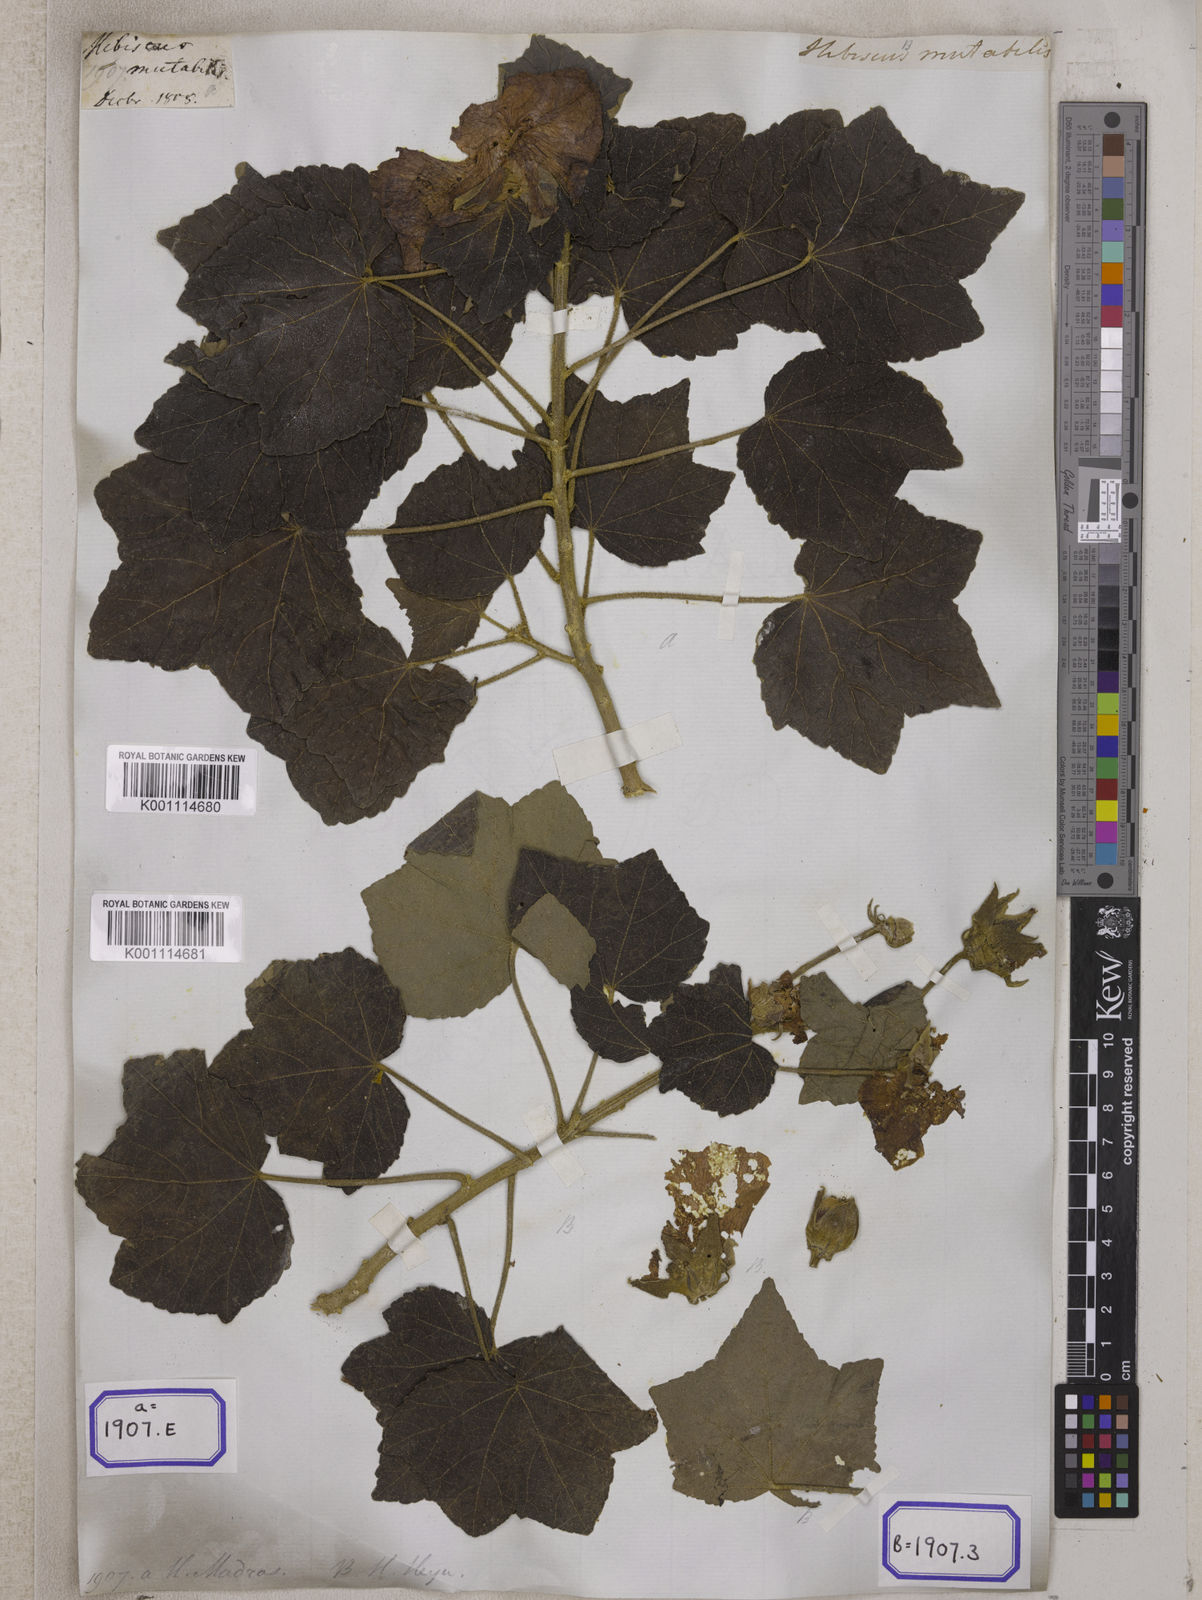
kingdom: Plantae
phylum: Tracheophyta
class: Magnoliopsida
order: Malvales
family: Malvaceae
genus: Hibiscus
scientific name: Hibiscus mutabilis
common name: Dixie rosemallow
